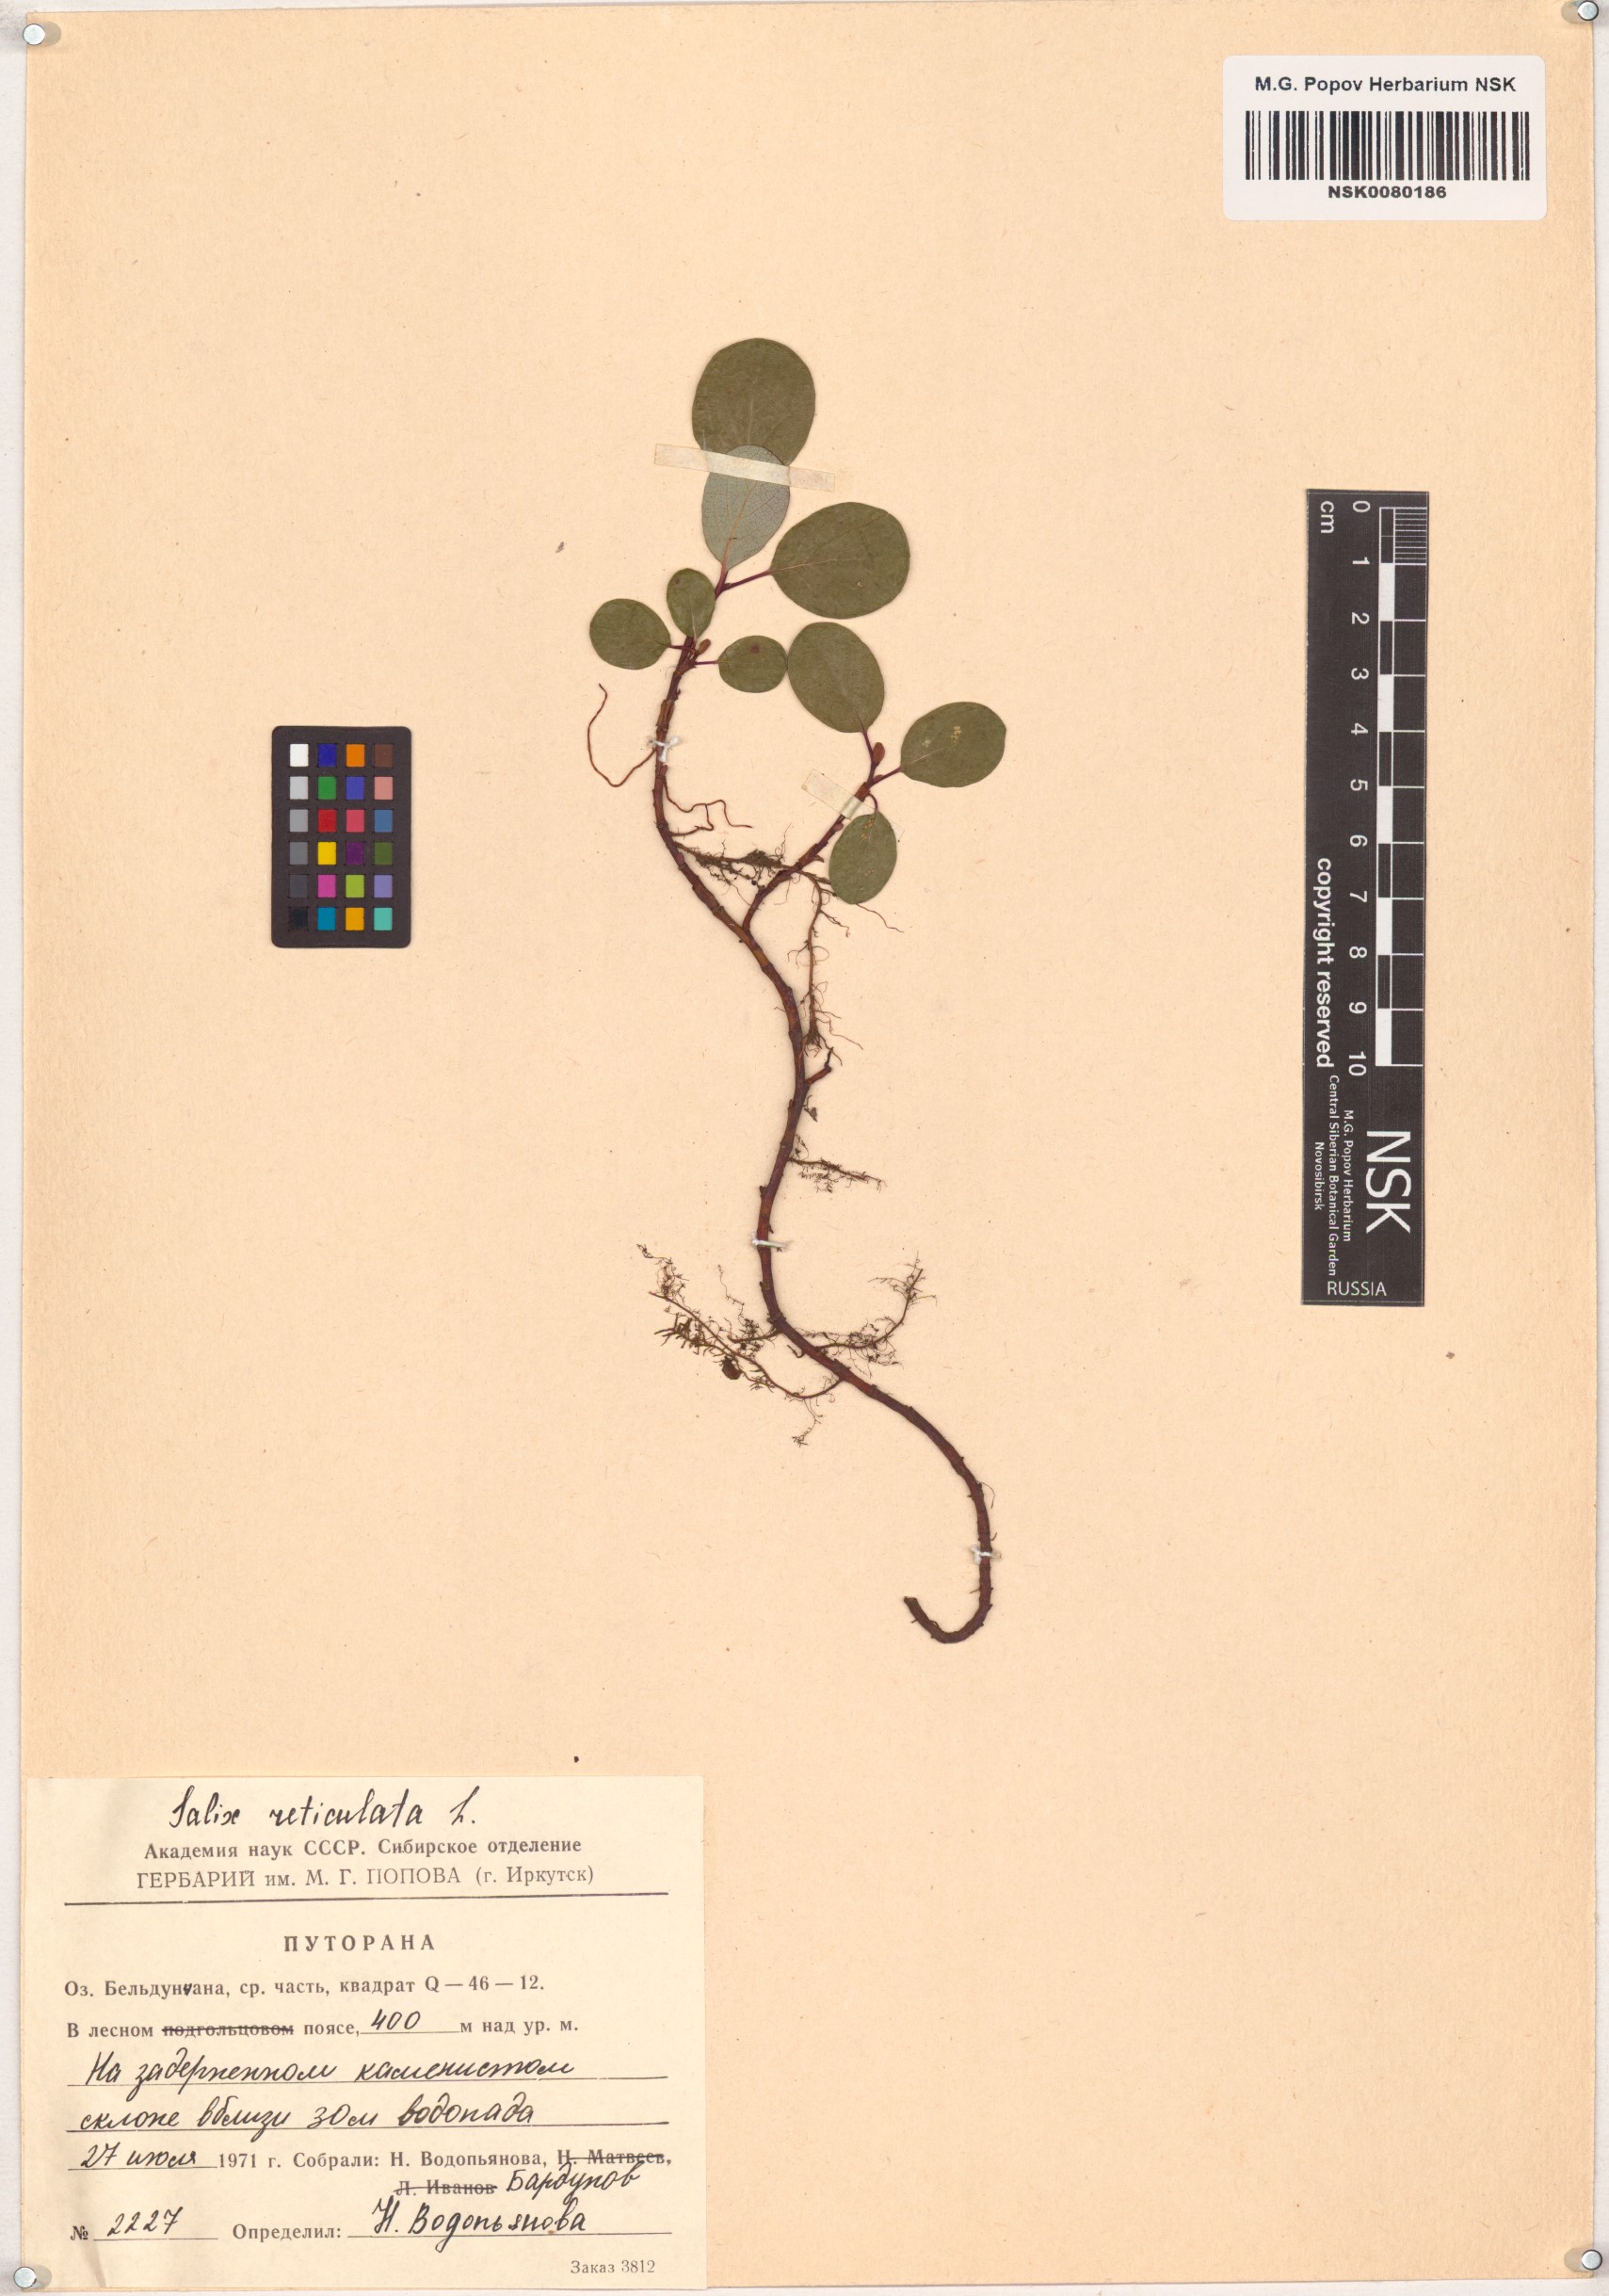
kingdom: Plantae
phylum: Tracheophyta
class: Magnoliopsida
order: Malpighiales
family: Salicaceae
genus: Salix
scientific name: Salix reticulata
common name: Net-leaved willow
